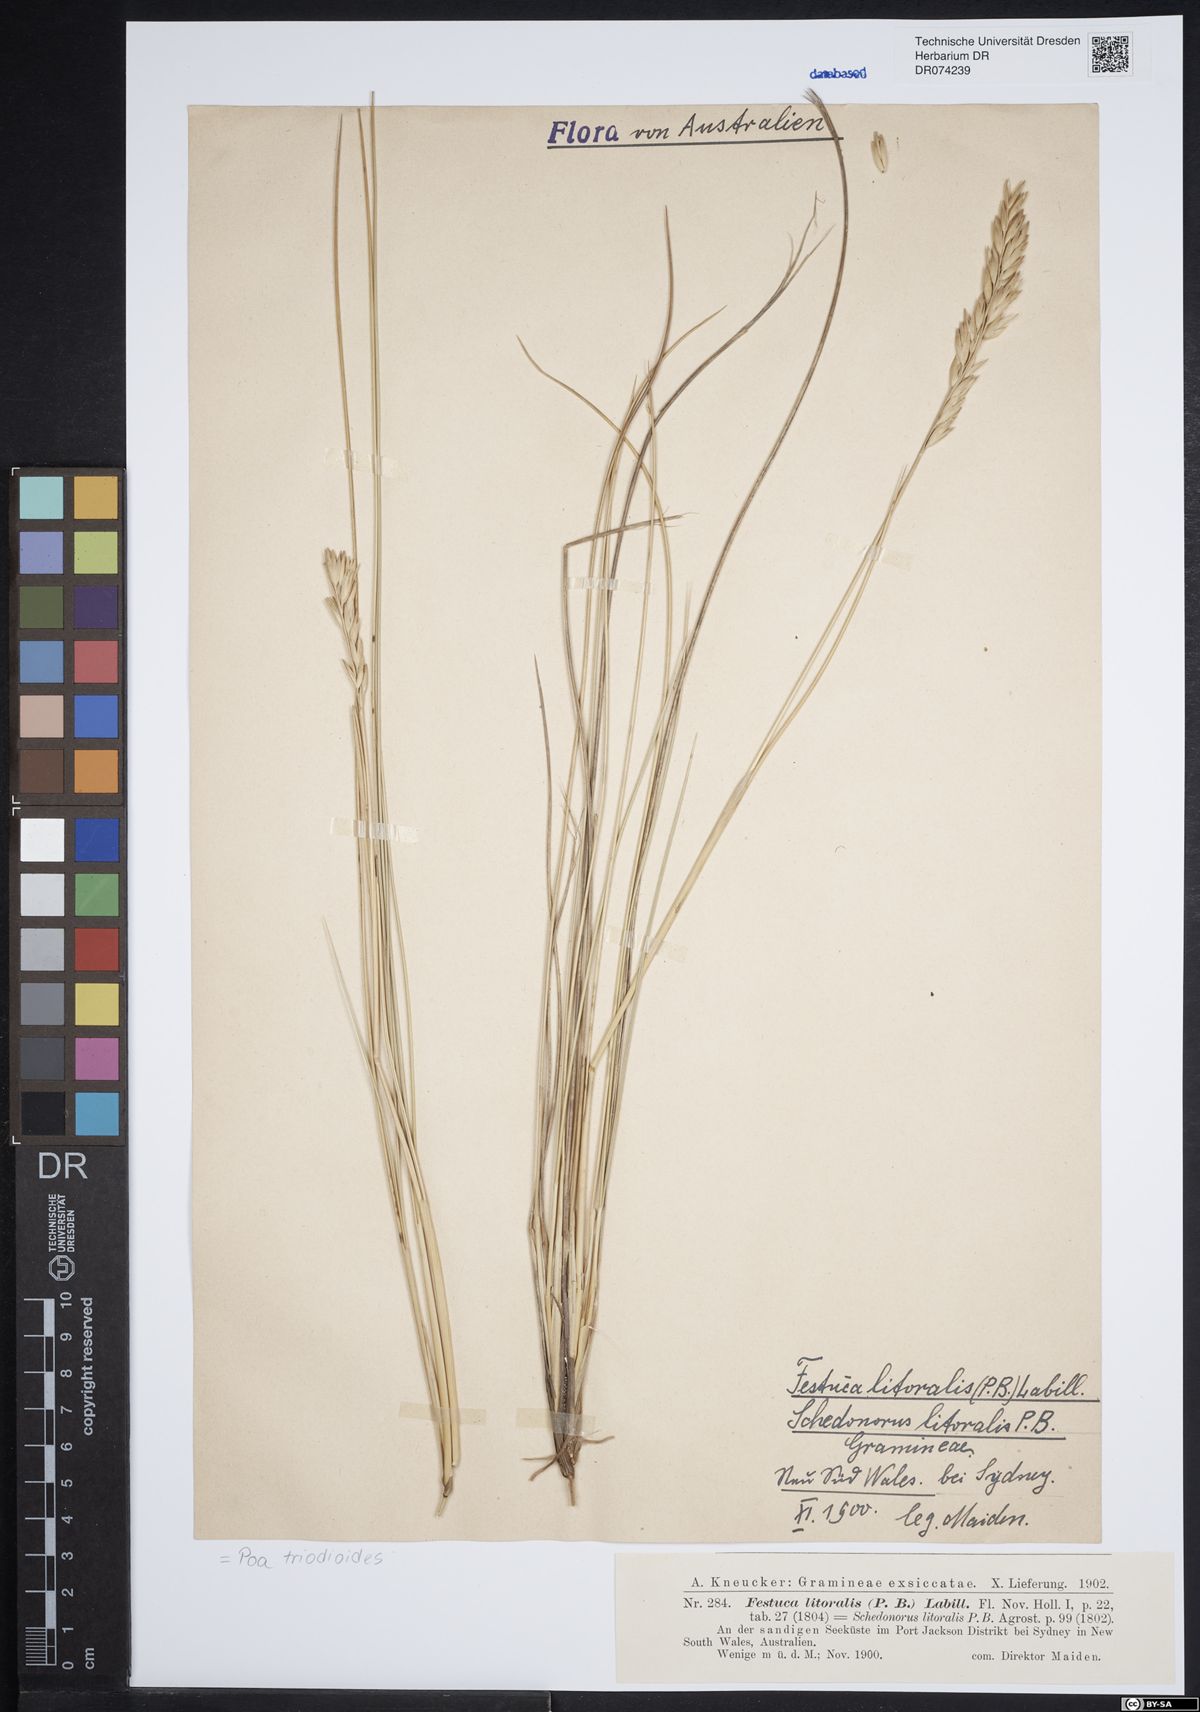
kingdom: Plantae
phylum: Tracheophyta
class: Liliopsida
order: Poales
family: Poaceae
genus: Poa
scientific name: Poa triodioides
